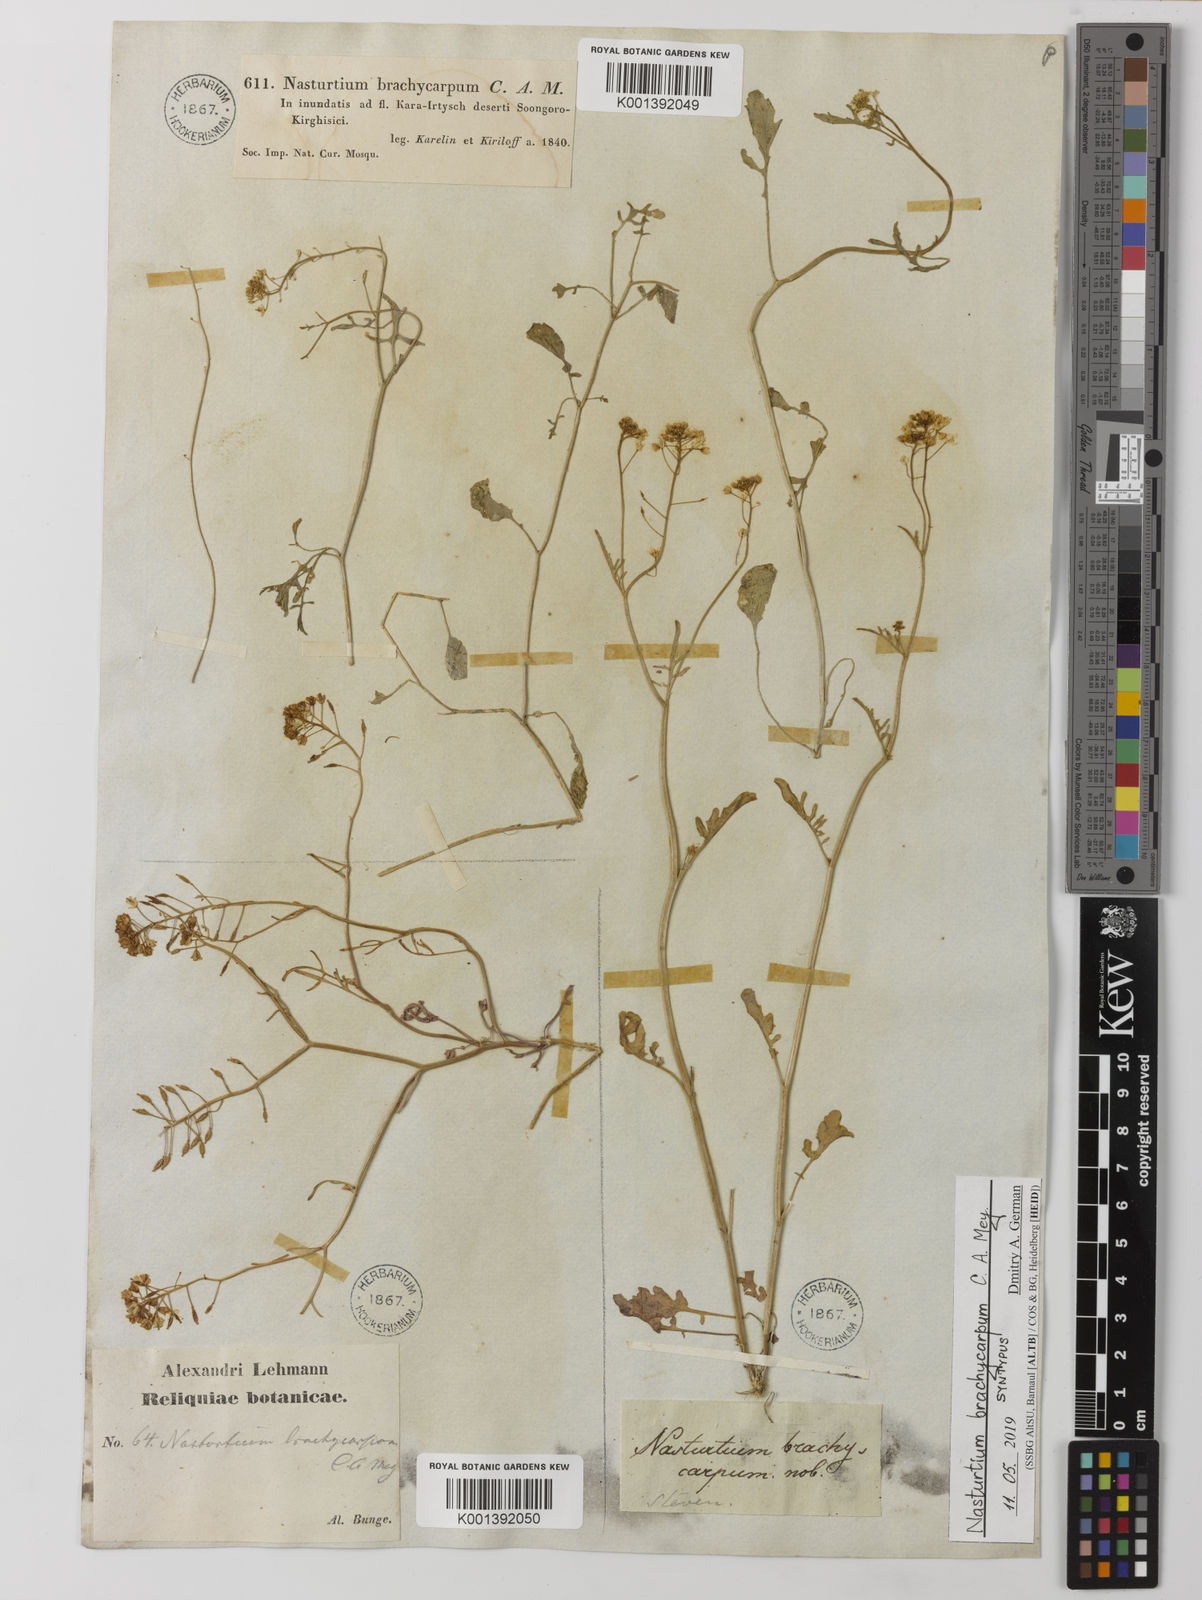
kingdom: Plantae
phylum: Tracheophyta
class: Magnoliopsida
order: Brassicales
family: Brassicaceae
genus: Rorippa
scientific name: Rorippa brachycarpa
